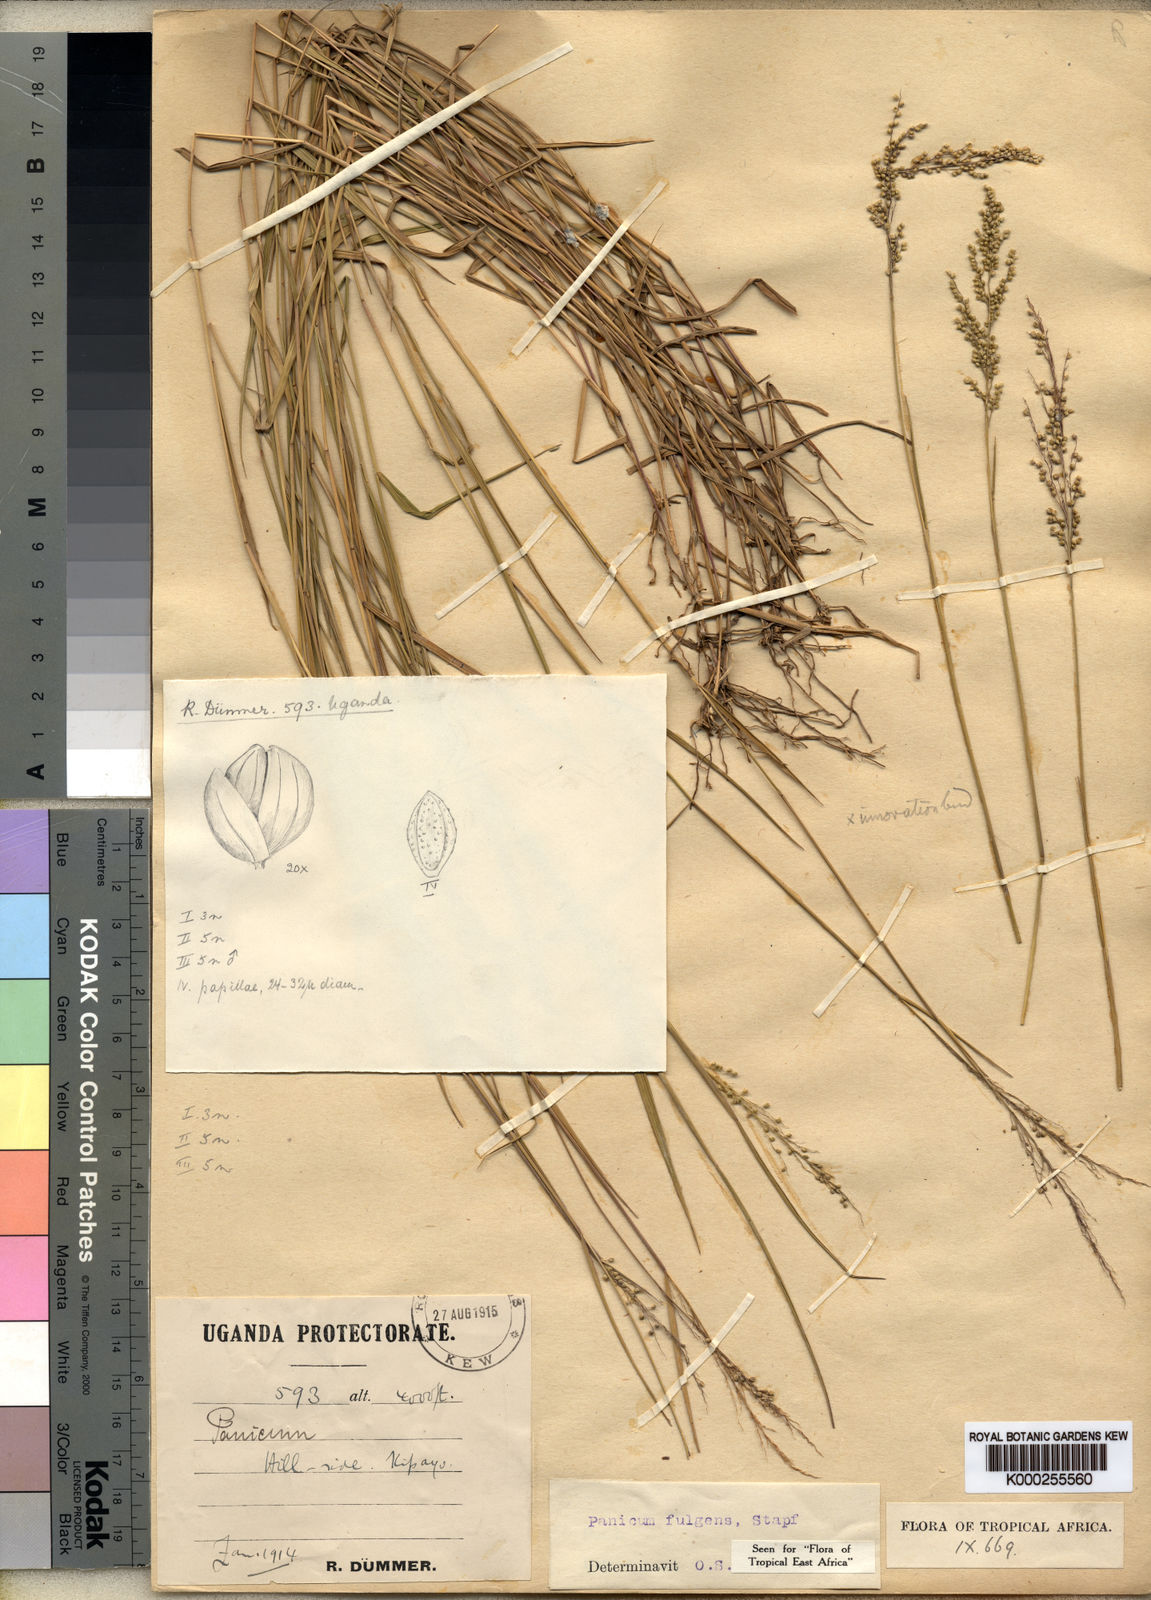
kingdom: Plantae
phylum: Tracheophyta
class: Liliopsida
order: Poales
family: Poaceae
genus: Trichanthecium
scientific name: Trichanthecium nervatum
